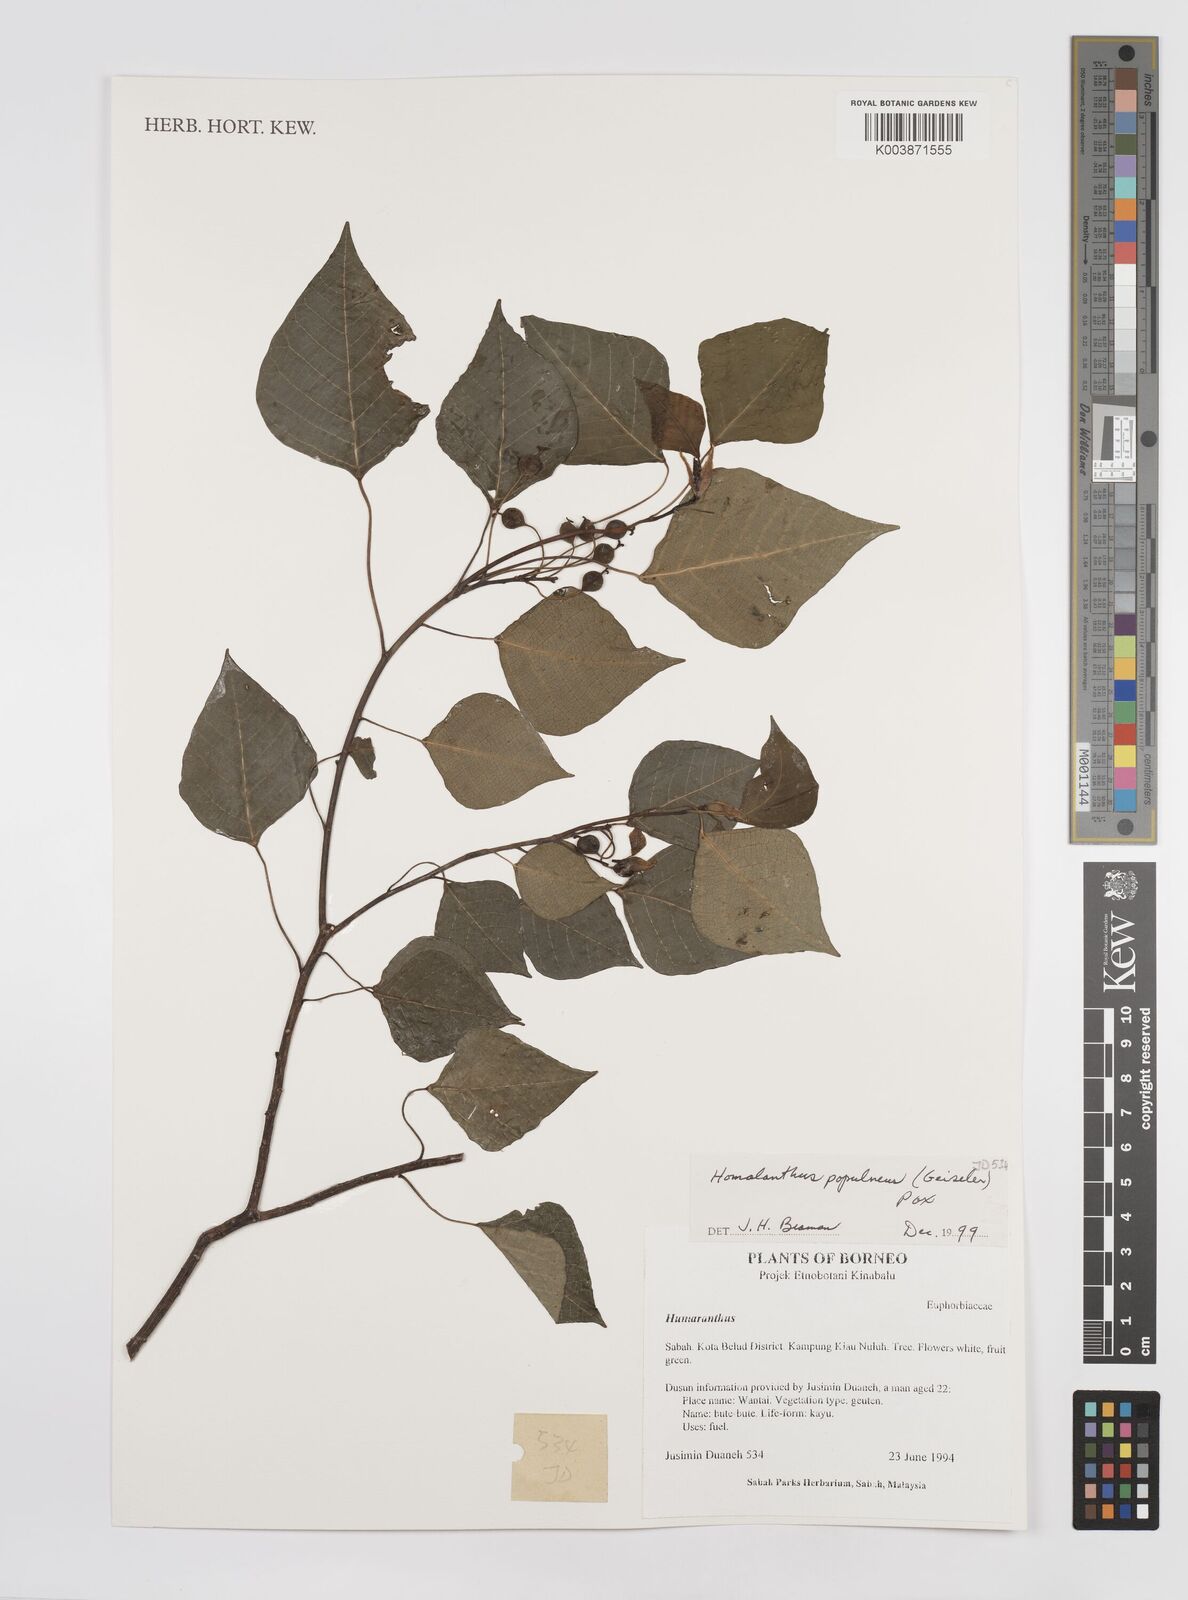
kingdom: Plantae
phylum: Tracheophyta
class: Magnoliopsida
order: Malpighiales
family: Euphorbiaceae
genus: Homalanthus
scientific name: Homalanthus populneus
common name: Spurge
